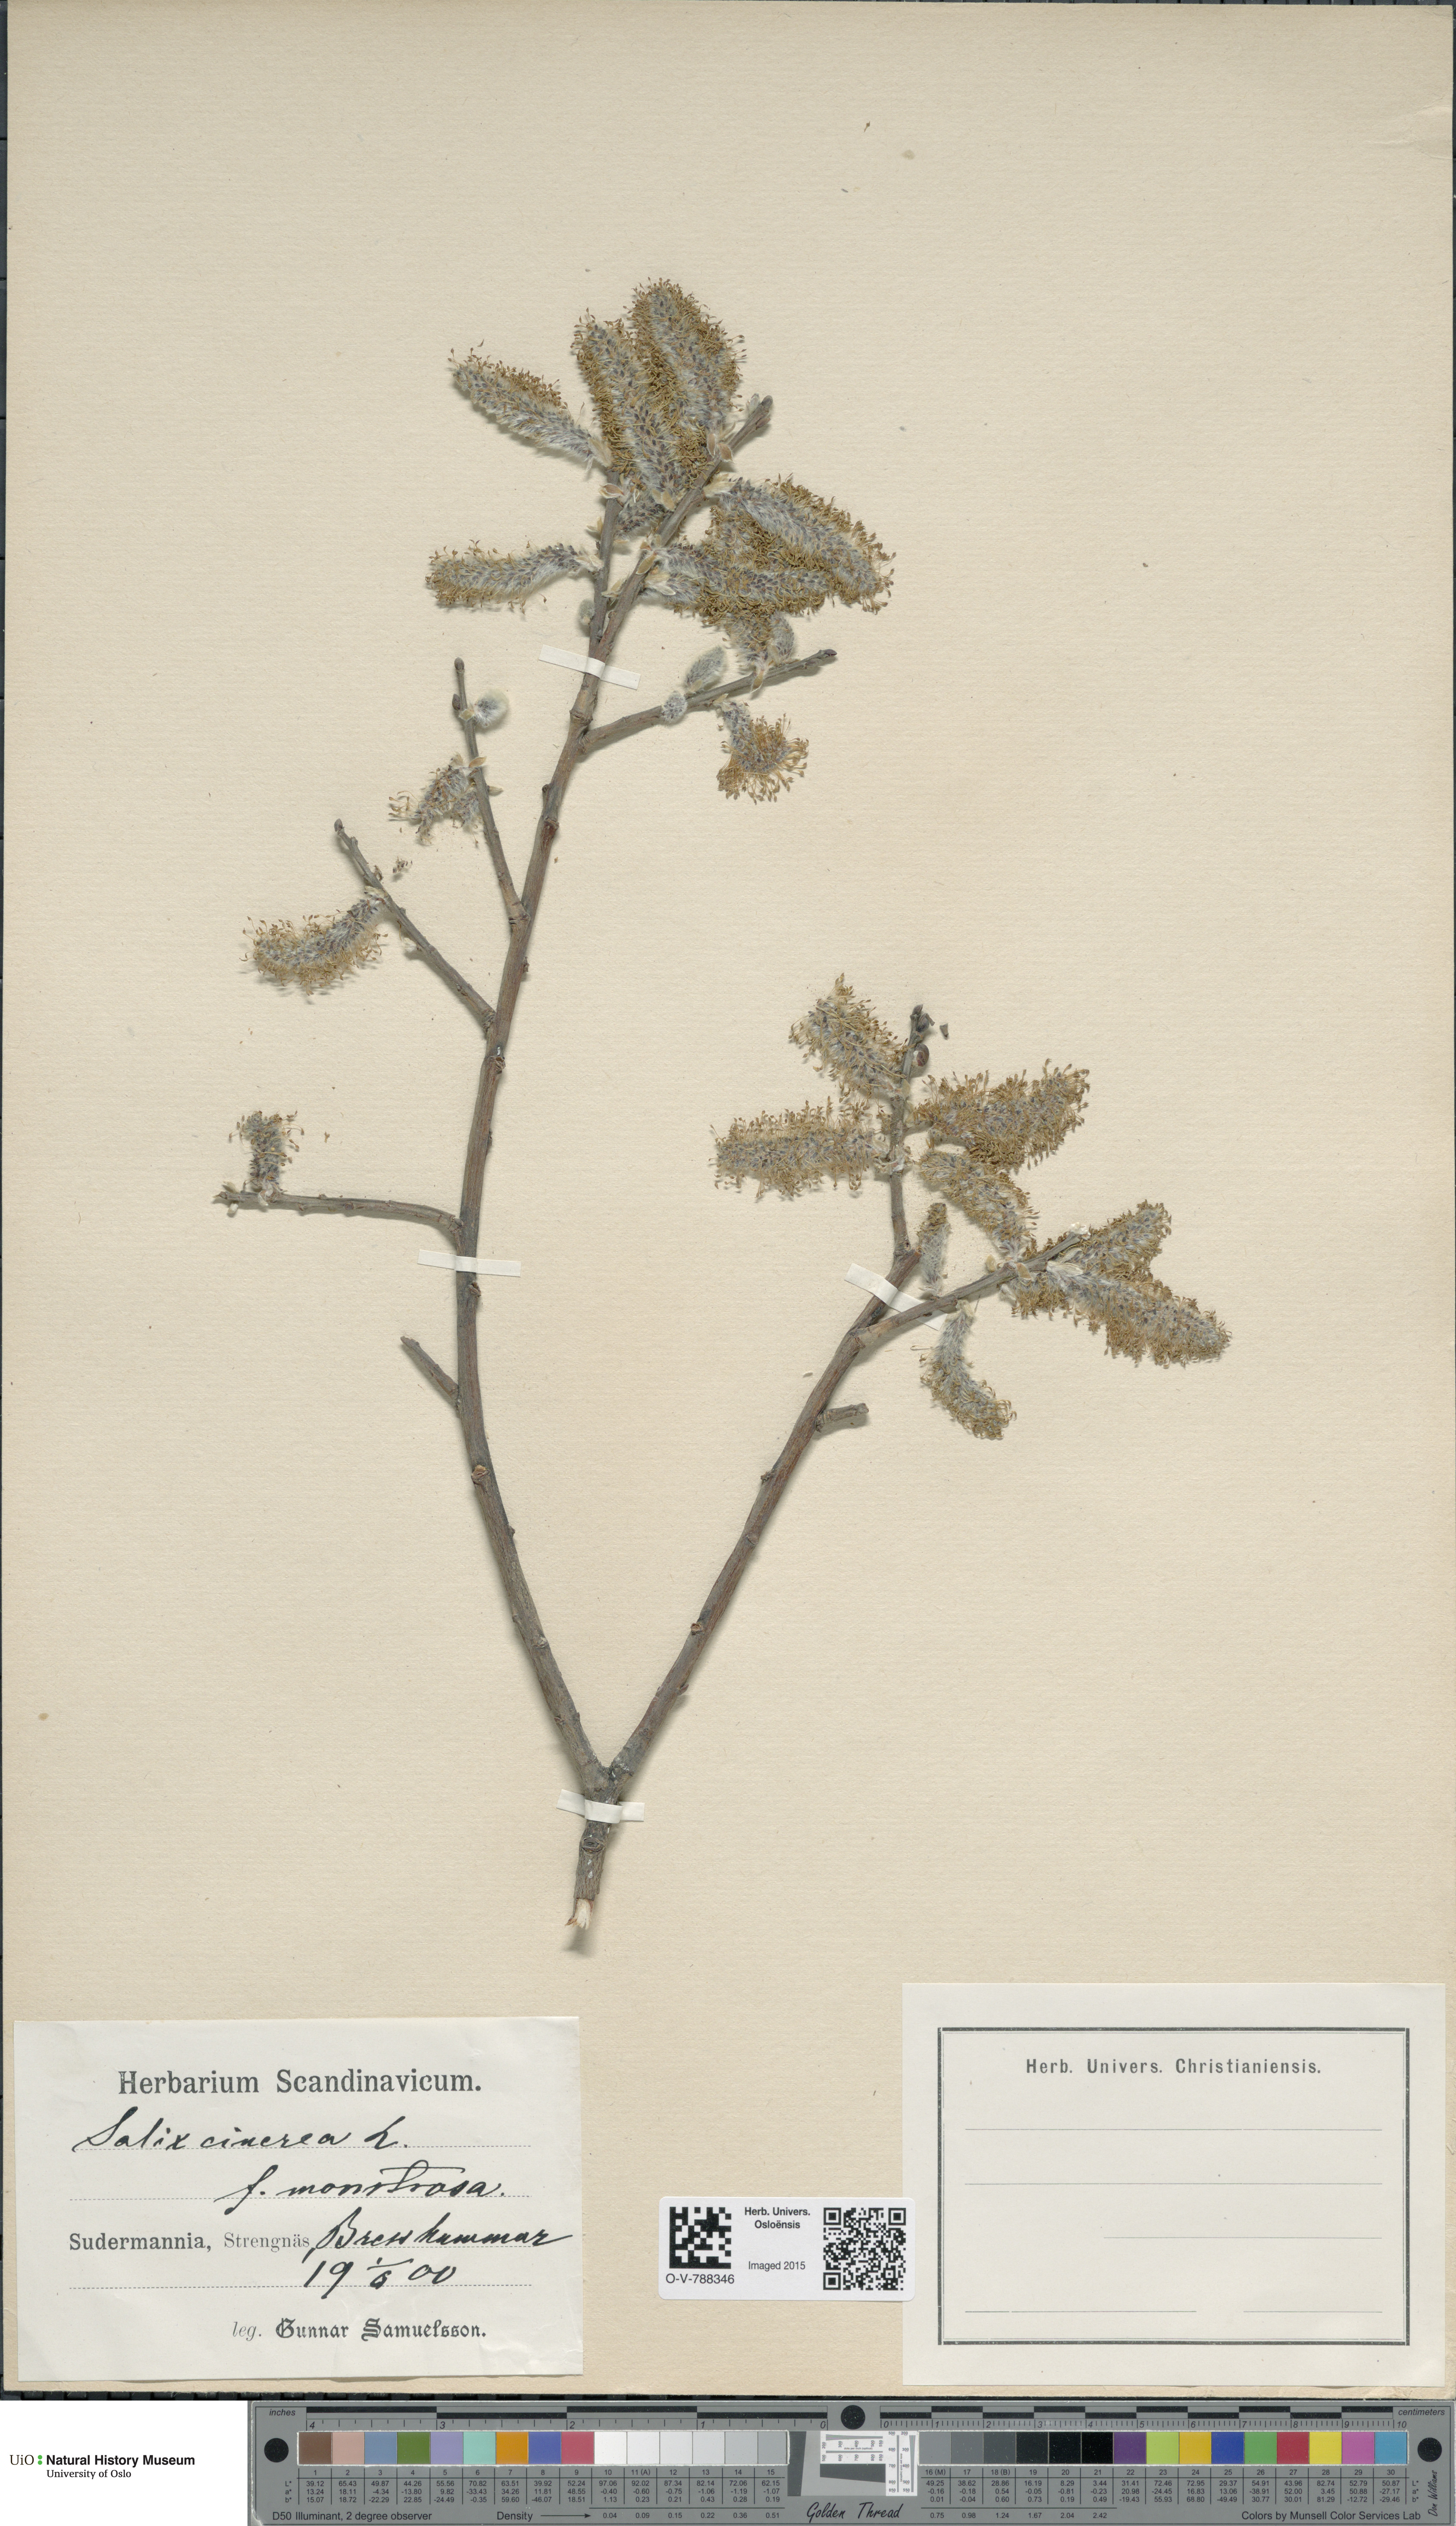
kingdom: Plantae
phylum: Tracheophyta
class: Magnoliopsida
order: Malpighiales
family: Salicaceae
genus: Salix
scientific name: Salix cinerea
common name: Common sallow
